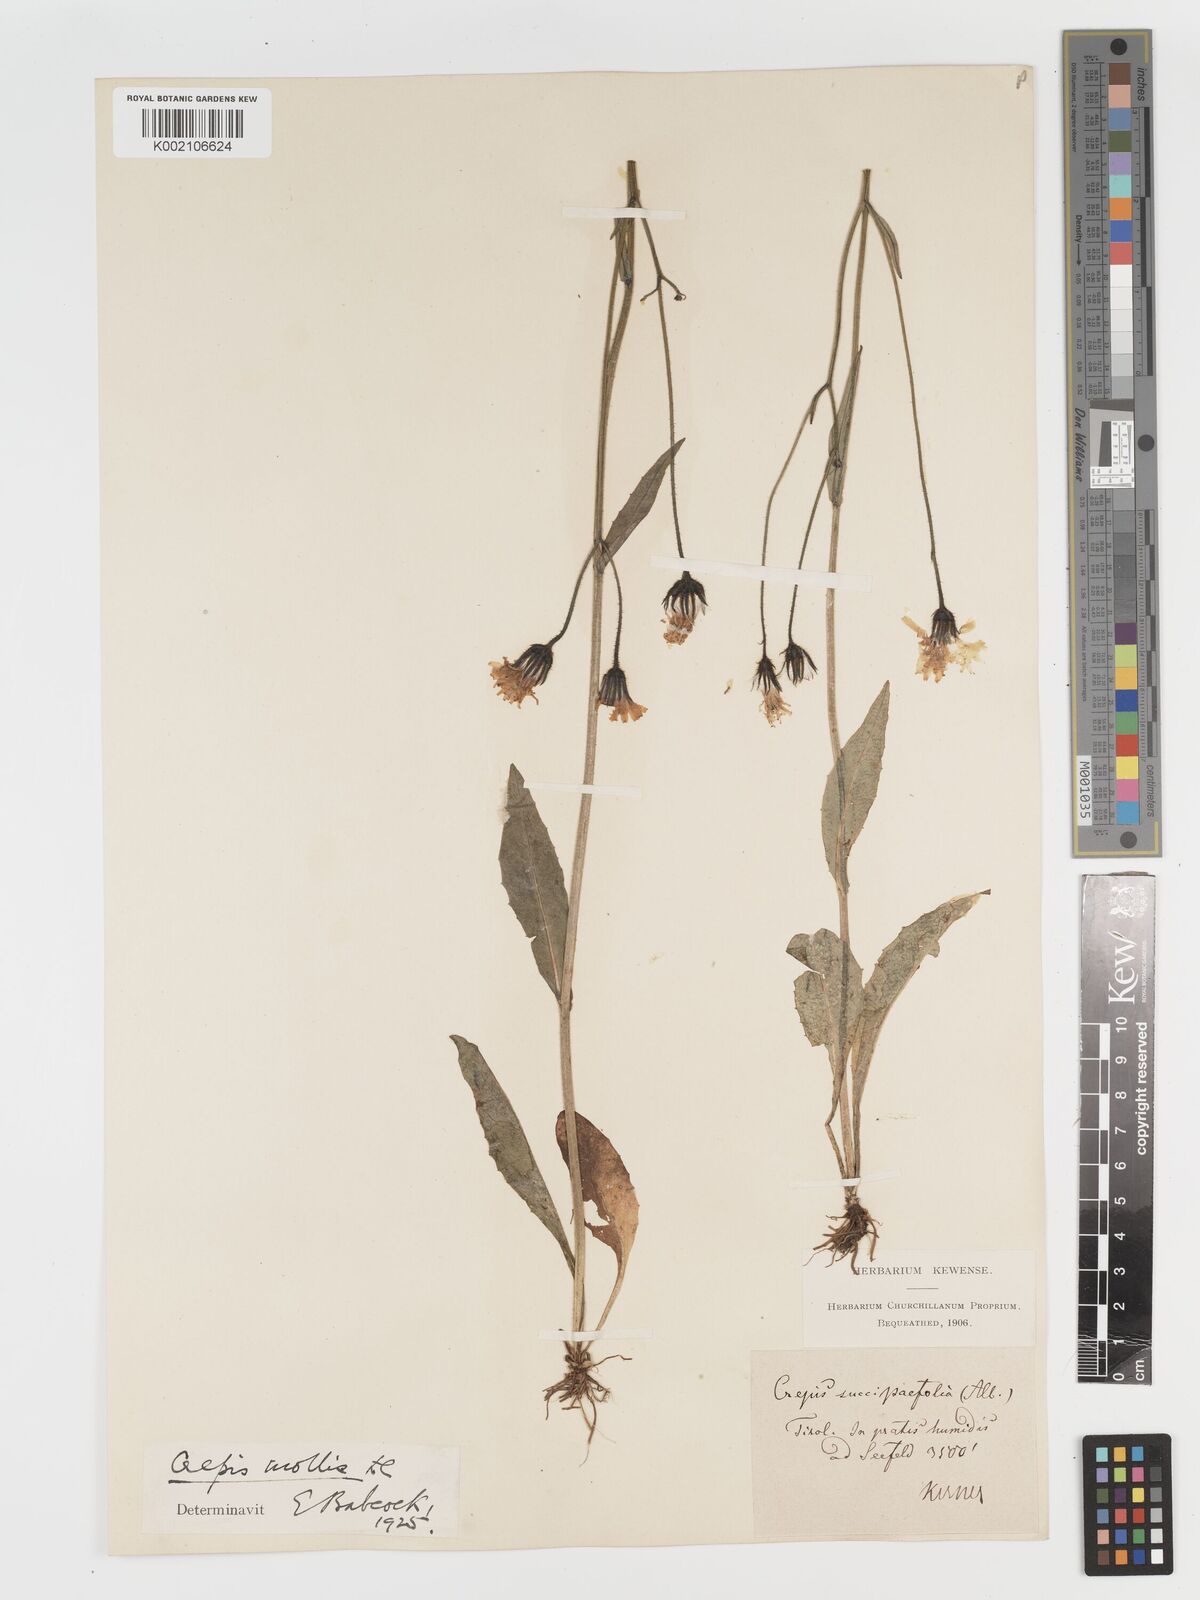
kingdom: Plantae
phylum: Tracheophyta
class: Magnoliopsida
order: Asterales
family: Asteraceae
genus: Crepis
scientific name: Crepis mollis
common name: Northern hawk's-beard
